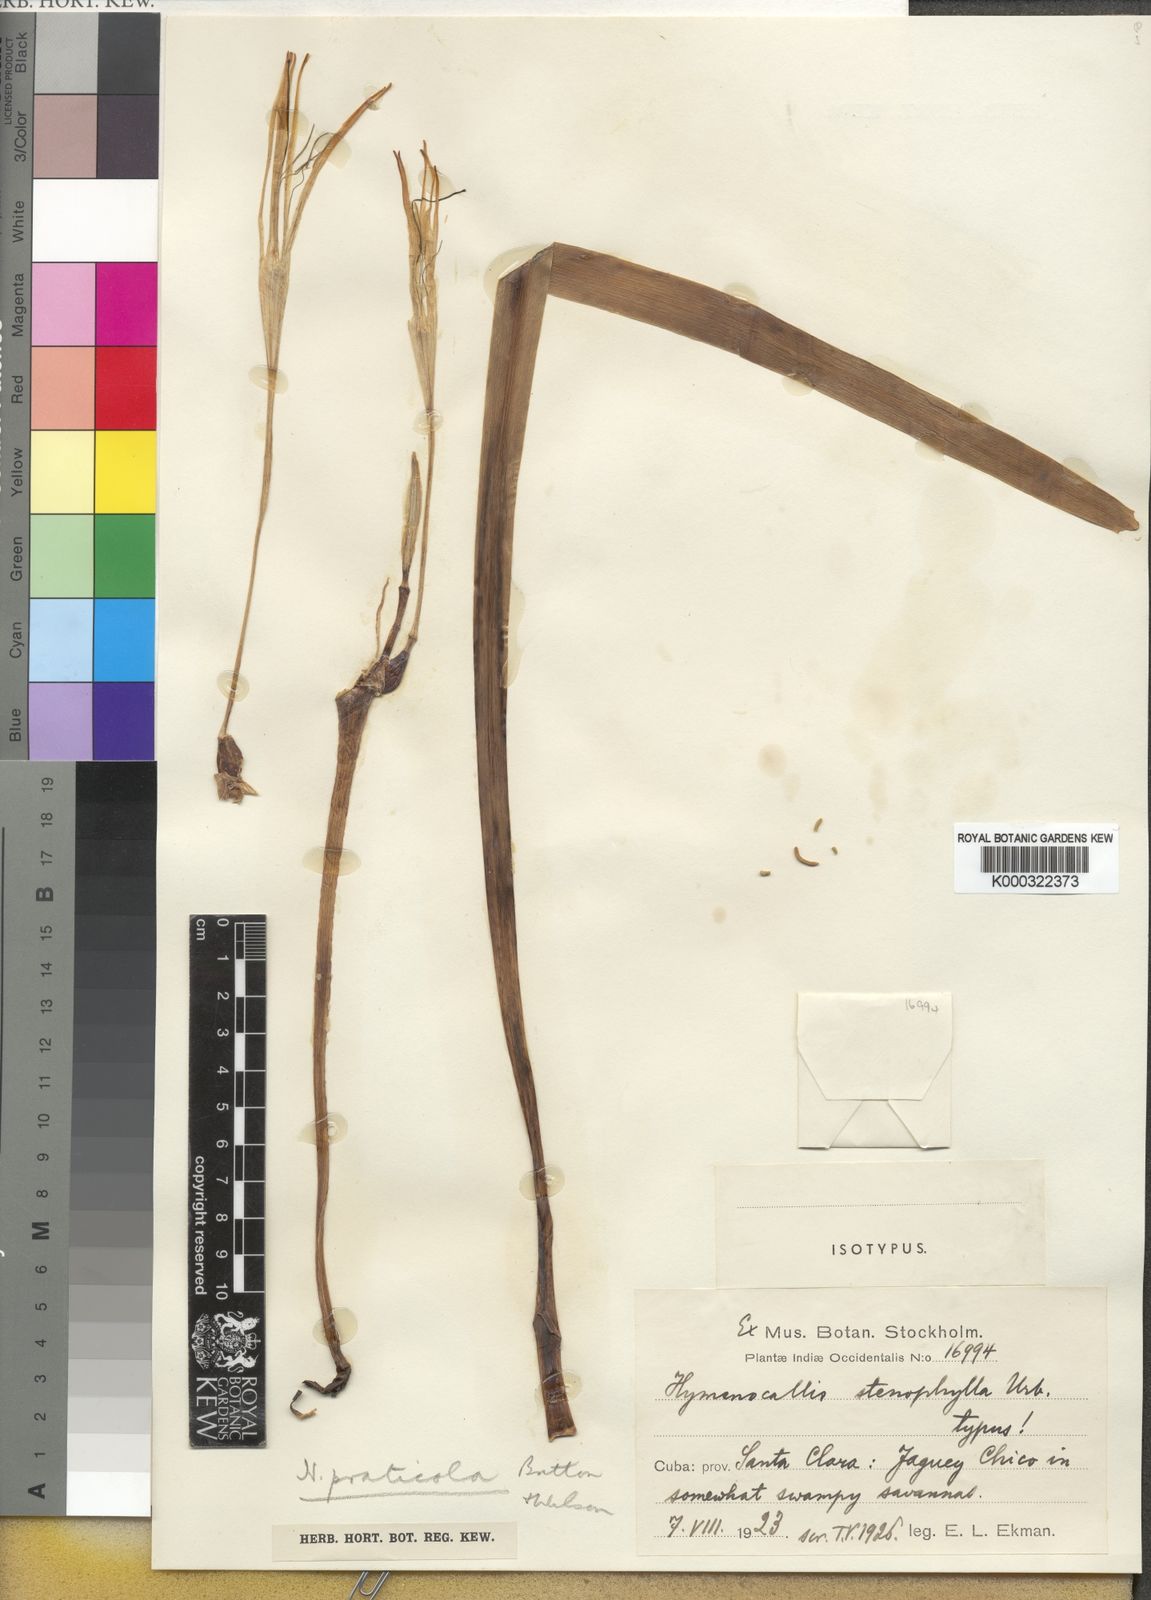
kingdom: Plantae
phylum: Tracheophyta
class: Liliopsida
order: Asparagales
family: Amaryllidaceae
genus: Hymenocallis
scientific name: Hymenocallis praticola
